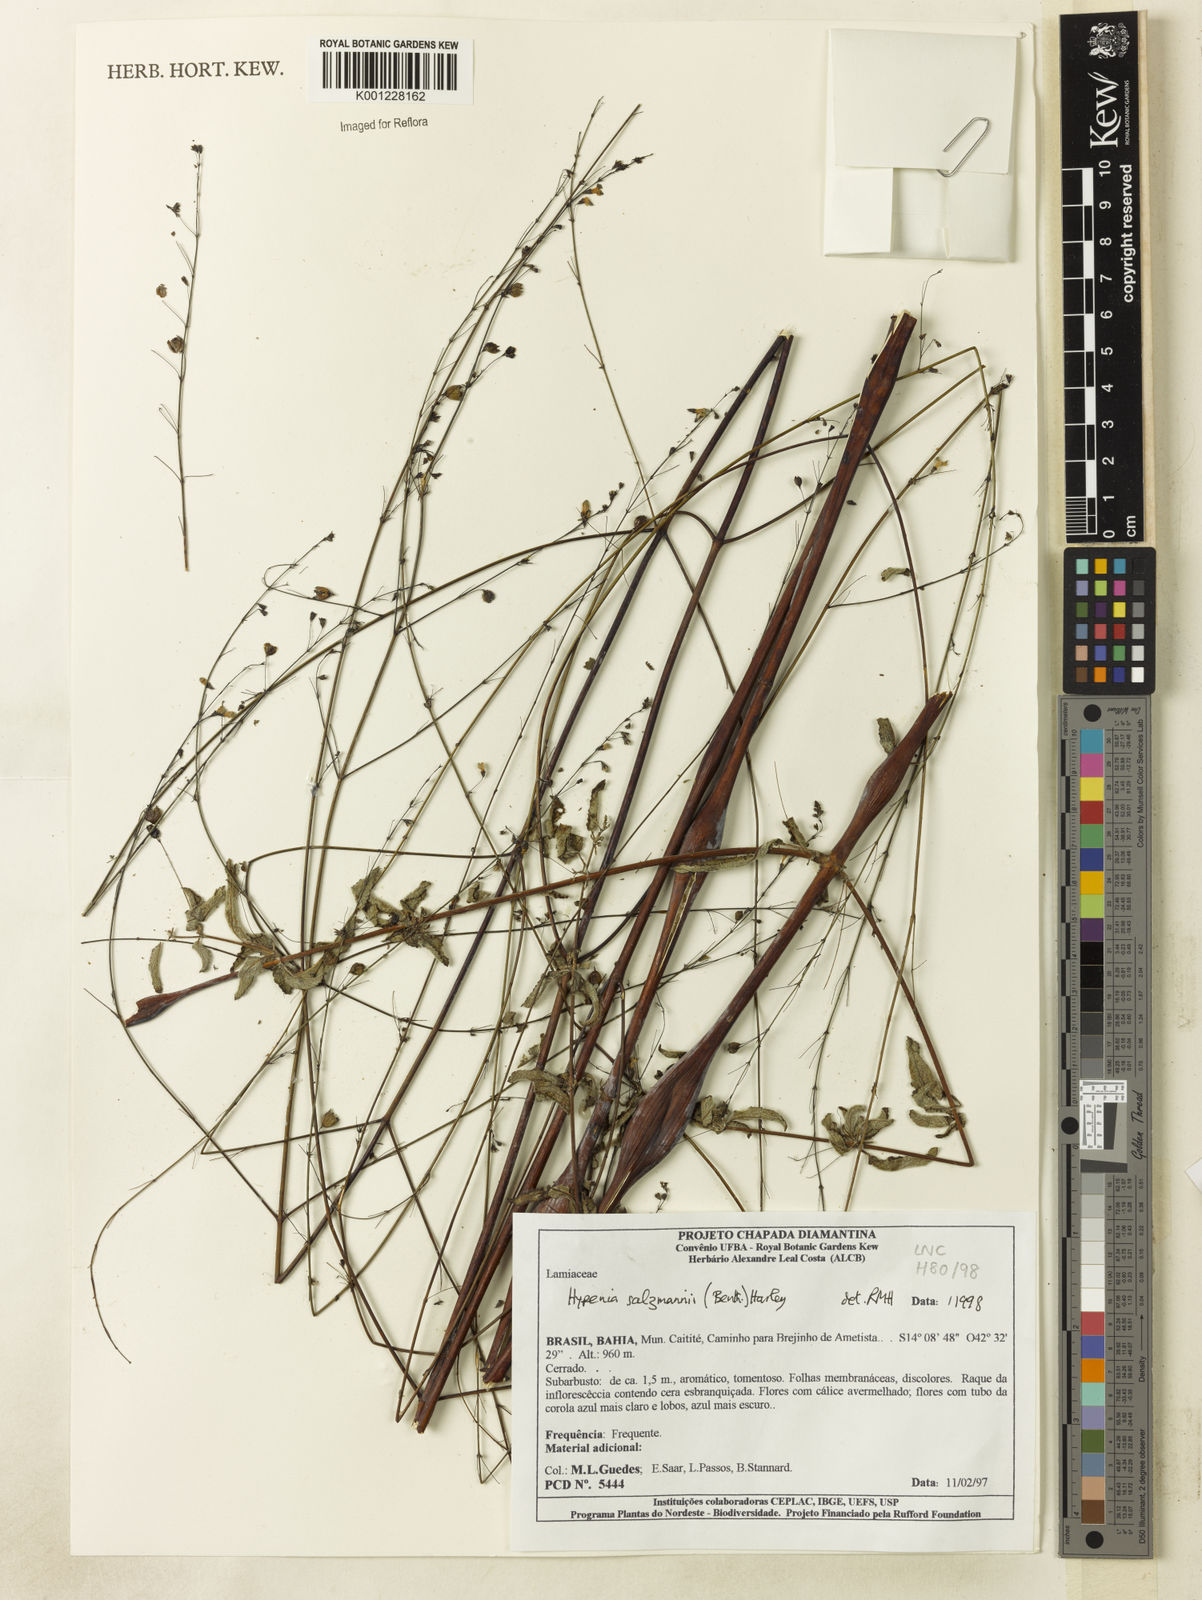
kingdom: Plantae
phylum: Tracheophyta
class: Magnoliopsida
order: Lamiales
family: Lamiaceae
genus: Hypenia
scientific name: Hypenia salzmannii
